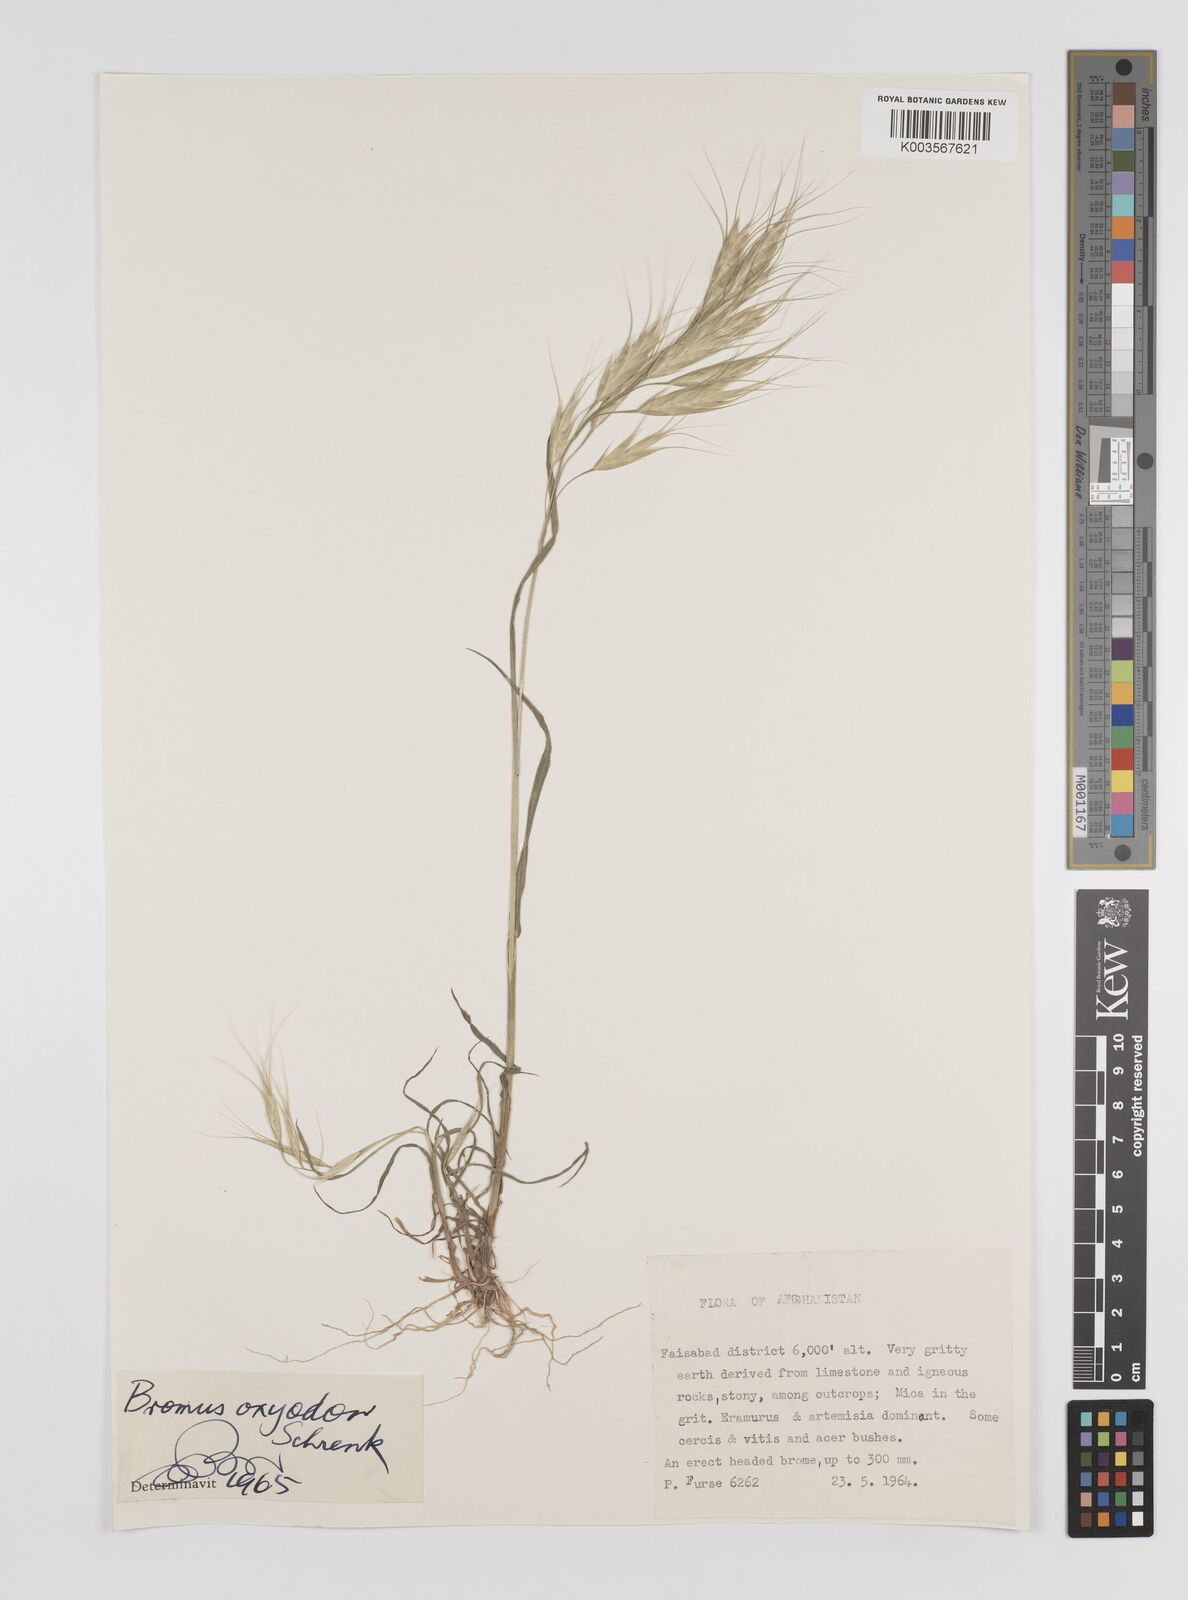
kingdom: Plantae
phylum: Tracheophyta
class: Liliopsida
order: Poales
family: Poaceae
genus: Bromus
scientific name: Bromus oxyodon
